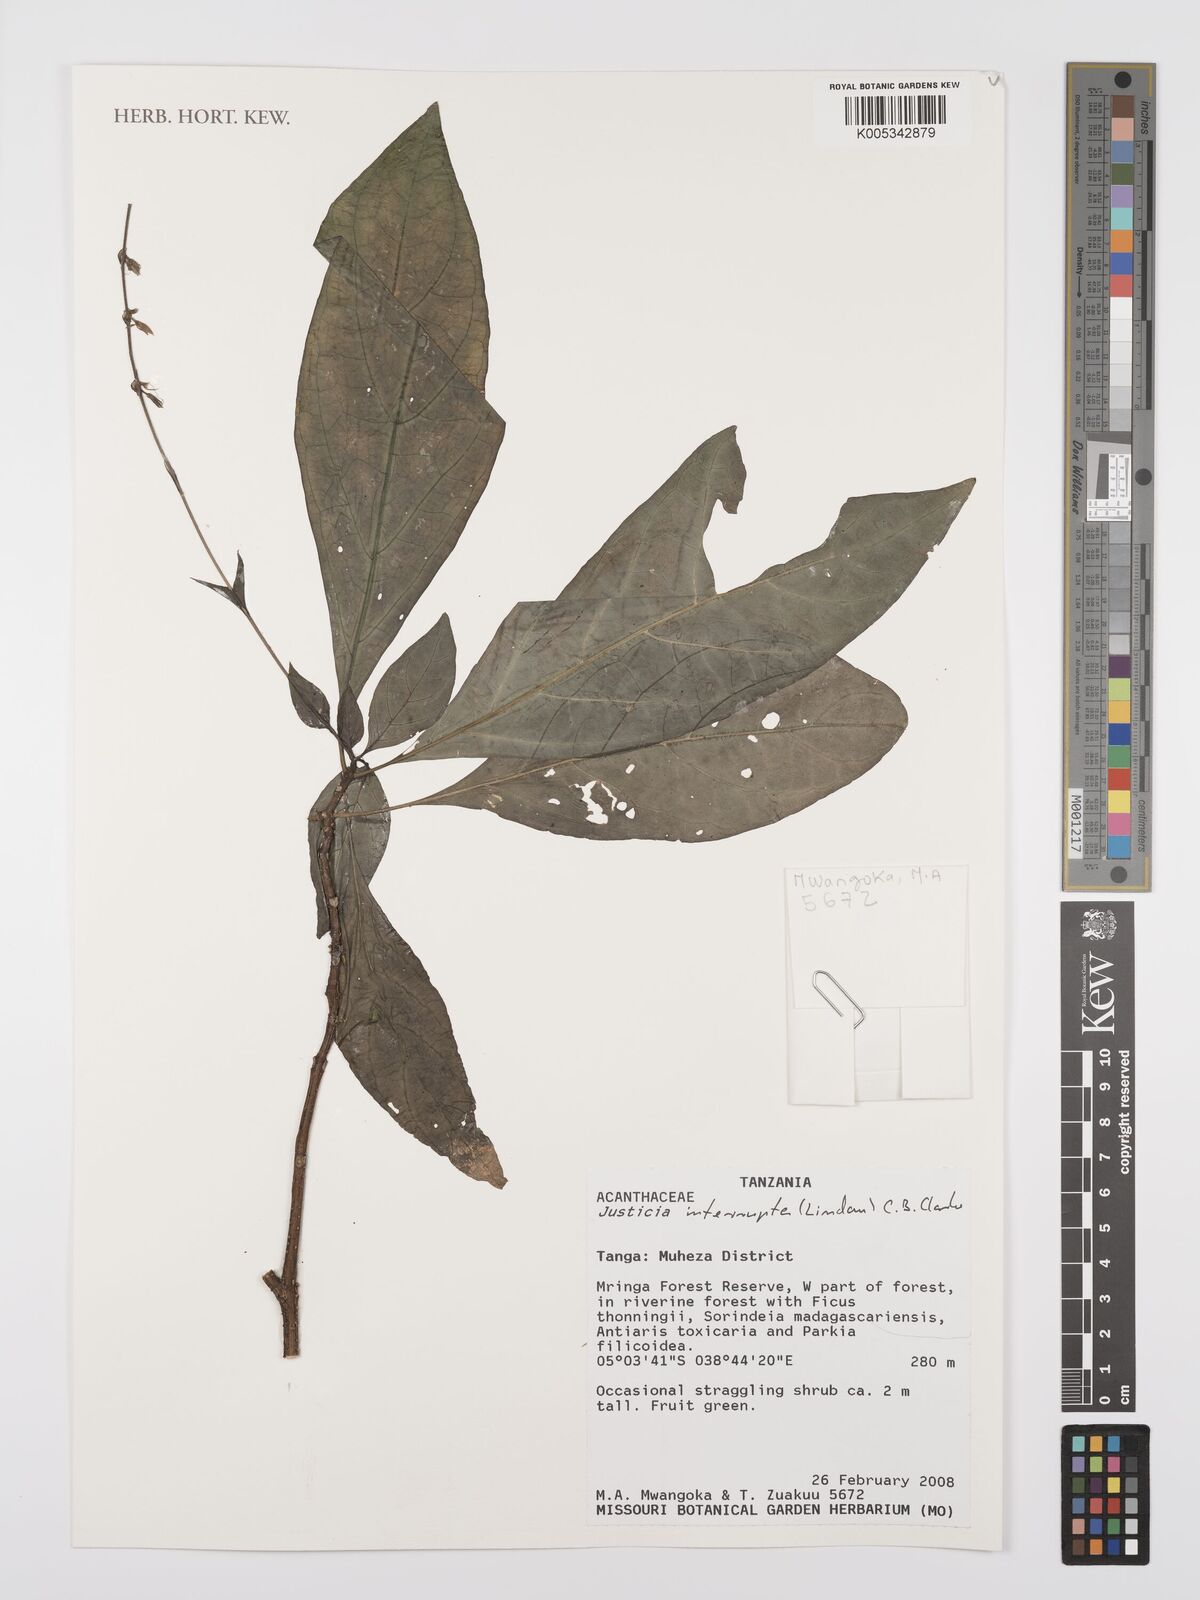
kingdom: Plantae
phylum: Tracheophyta
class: Magnoliopsida
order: Lamiales
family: Acanthaceae
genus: Justicia
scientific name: Justicia plectranthoides
